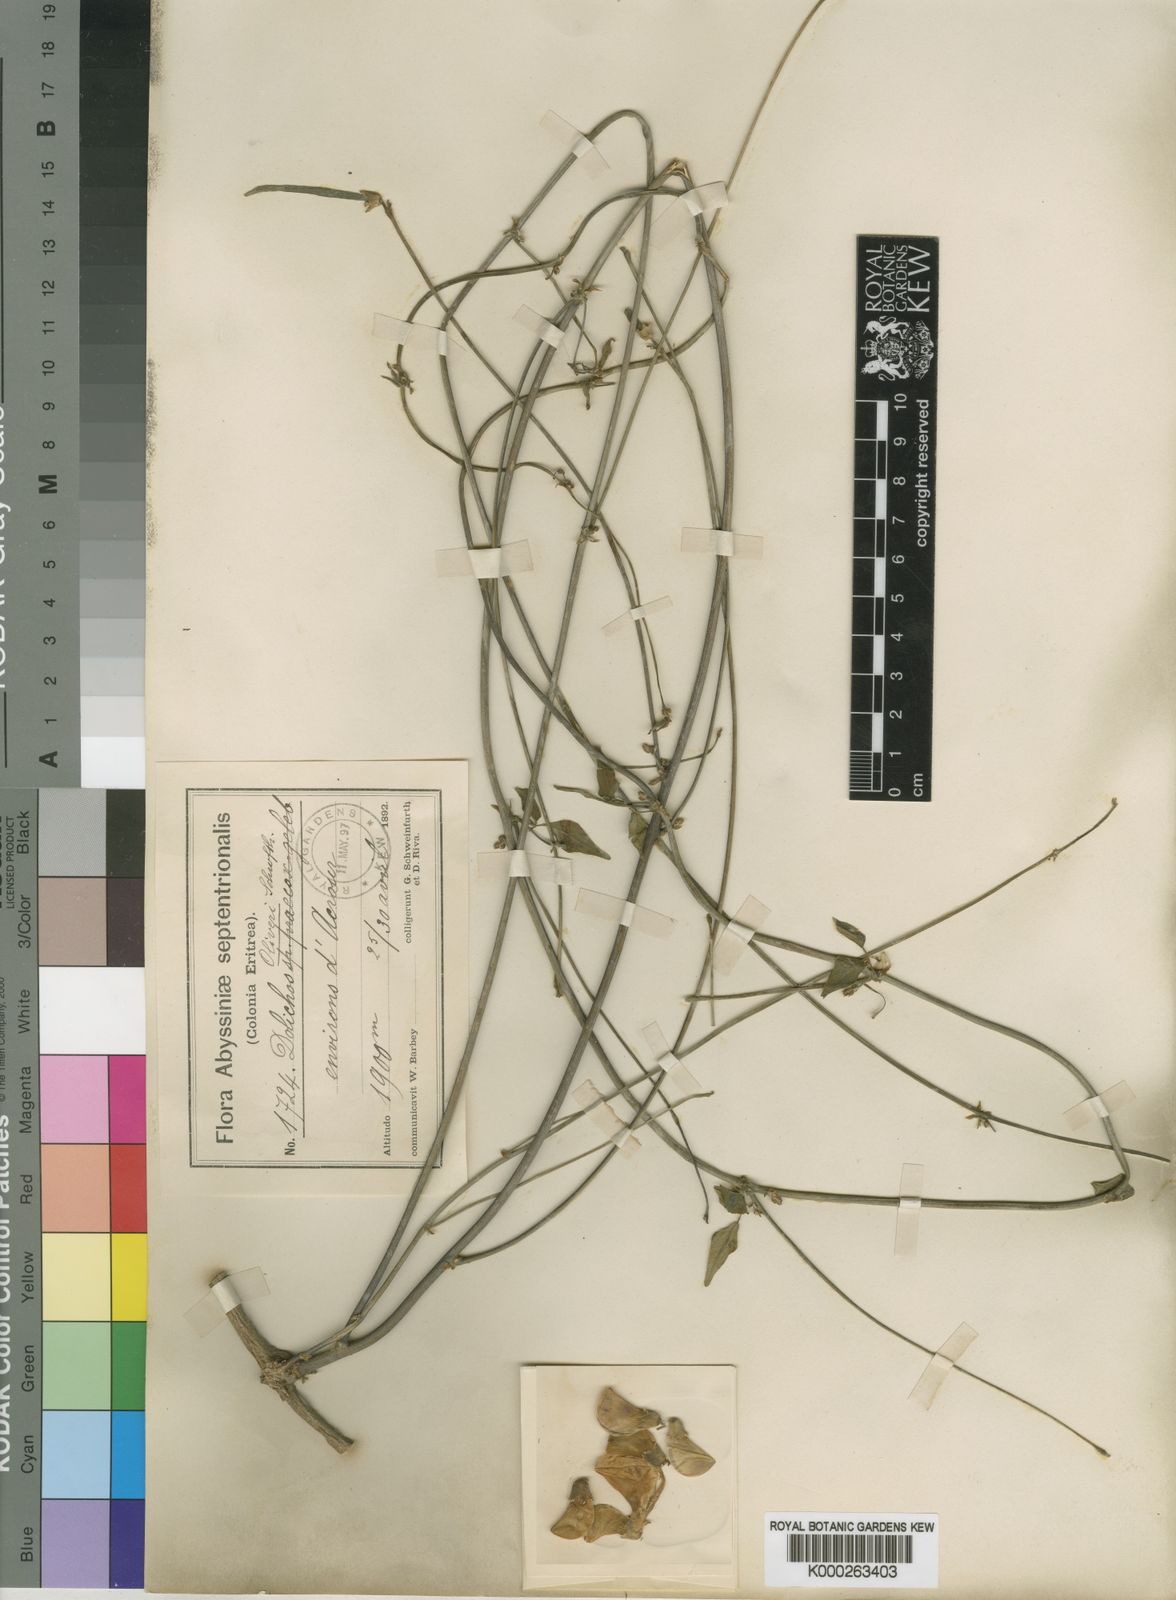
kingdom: Plantae
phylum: Tracheophyta
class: Magnoliopsida
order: Fabales
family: Fabaceae
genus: Vigna
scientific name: Vigna debanensis
